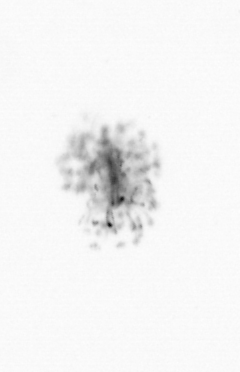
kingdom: Chromista
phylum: Ochrophyta
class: Bacillariophyceae
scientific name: Bacillariophyceae
